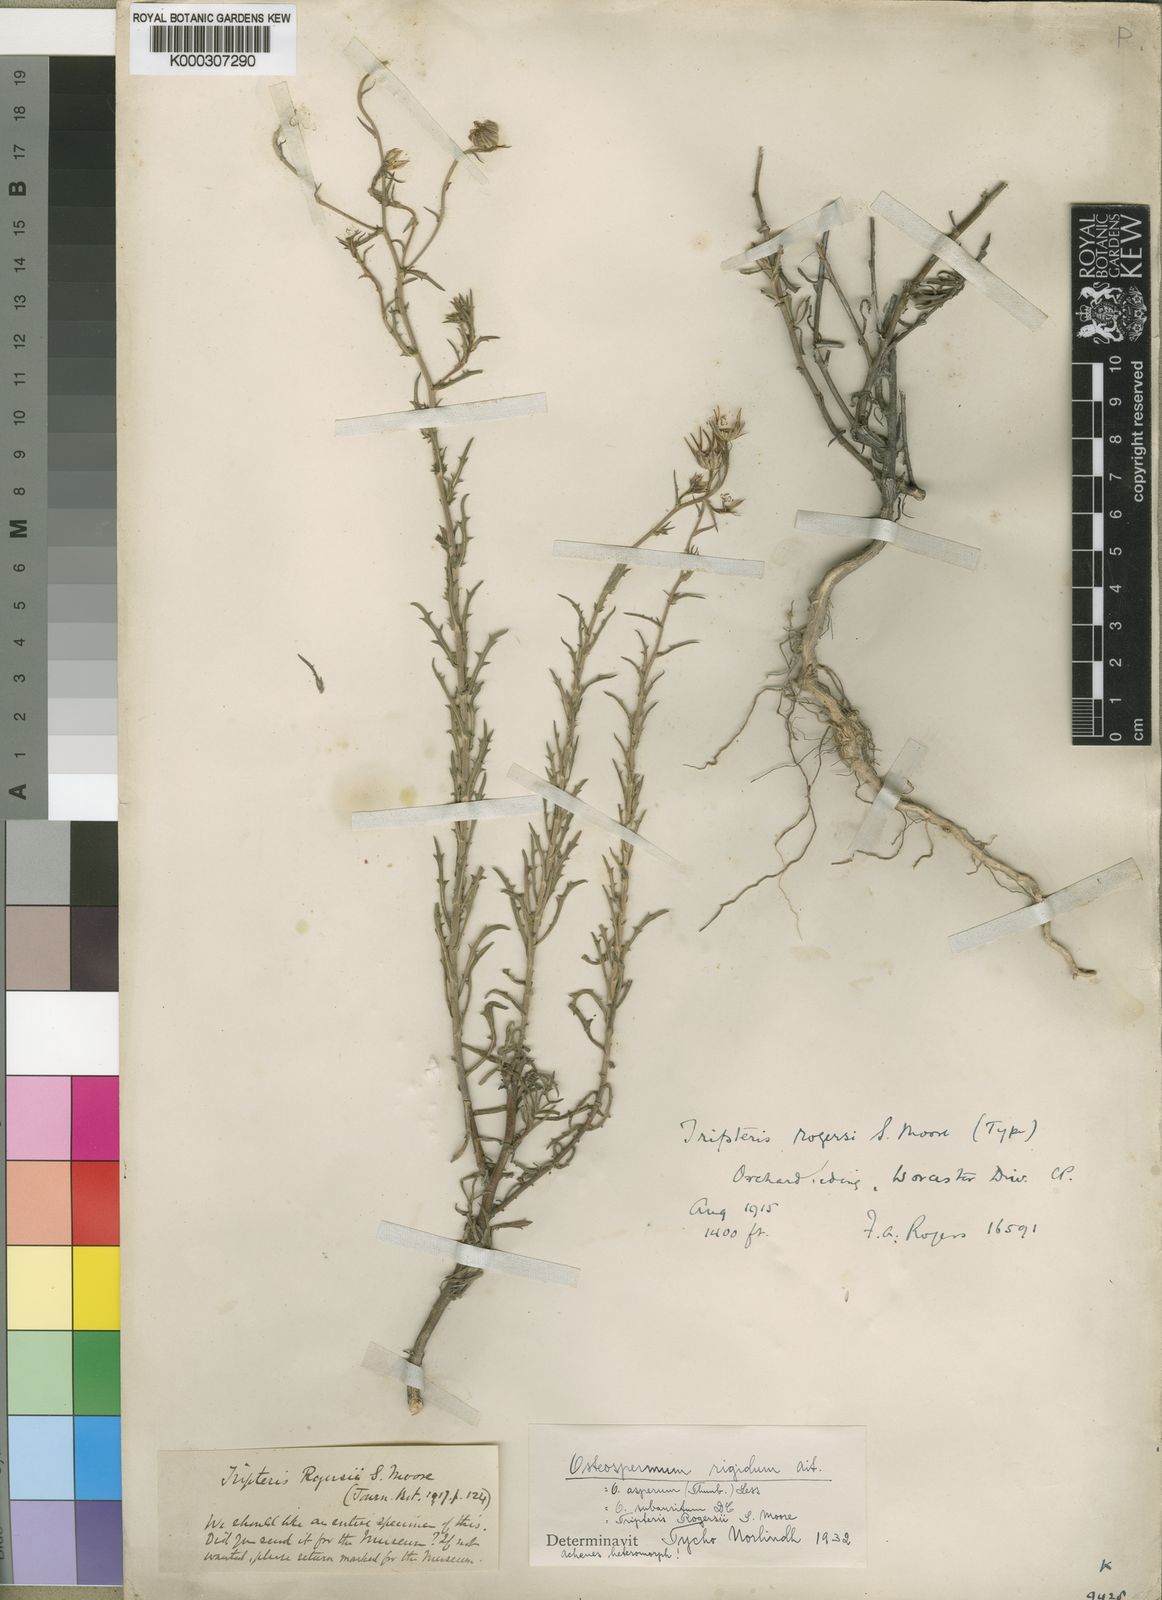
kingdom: Plantae
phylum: Tracheophyta
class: Magnoliopsida
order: Asterales
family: Asteraceae
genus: Osteospermum
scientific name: Osteospermum rigidum
